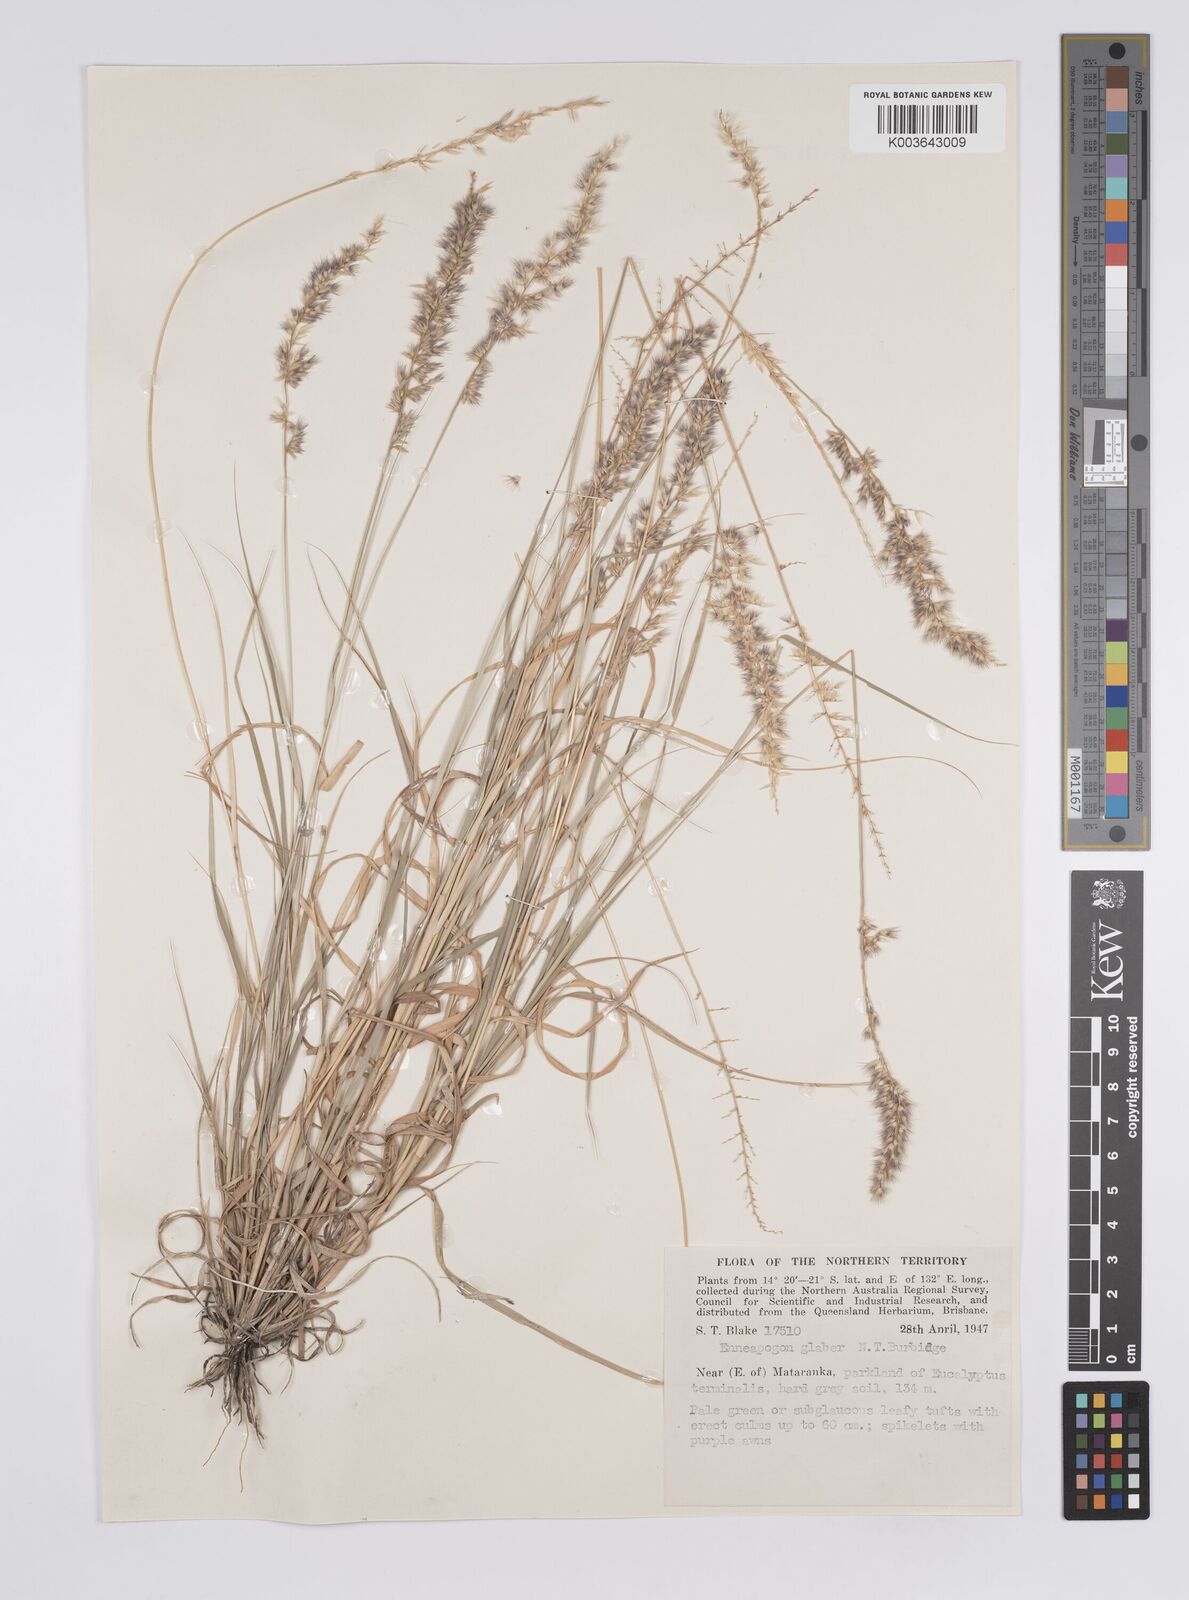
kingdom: Plantae
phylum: Tracheophyta
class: Liliopsida
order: Poales
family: Poaceae
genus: Enneapogon
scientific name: Enneapogon purpurascens
